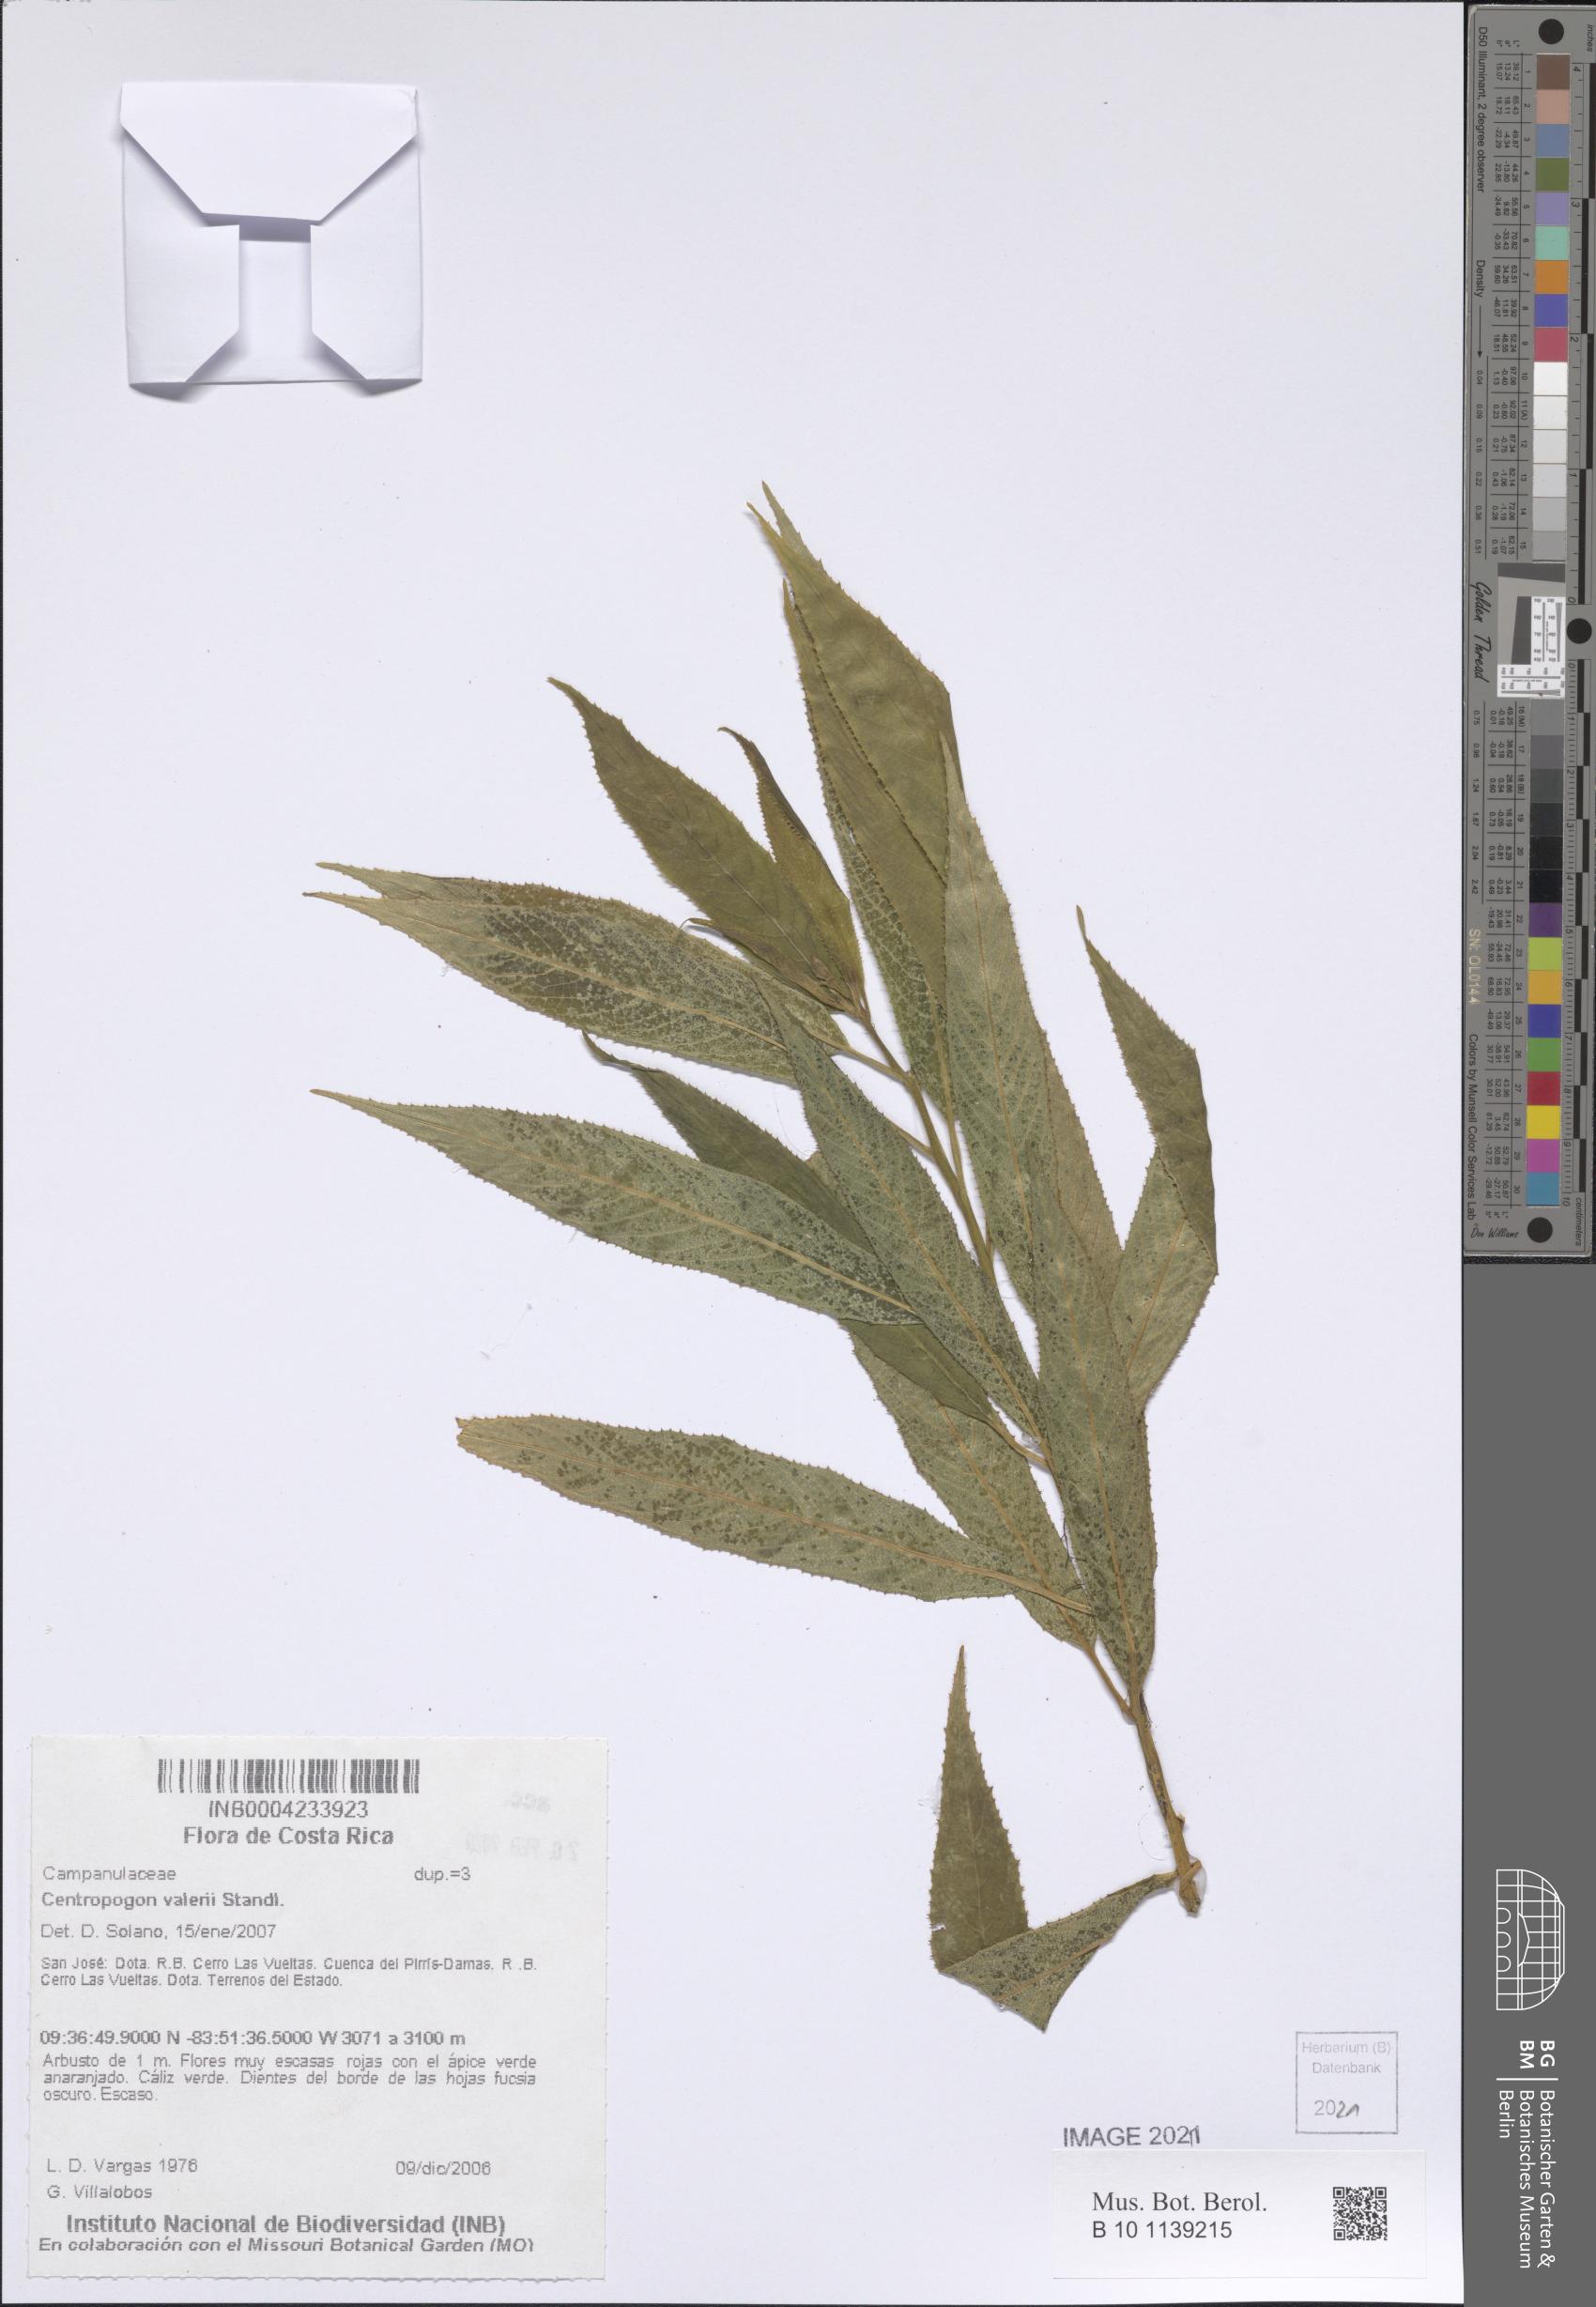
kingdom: Plantae
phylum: Tracheophyta
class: Magnoliopsida
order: Asterales
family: Campanulaceae
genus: Centropogon
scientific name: Centropogon valerii
